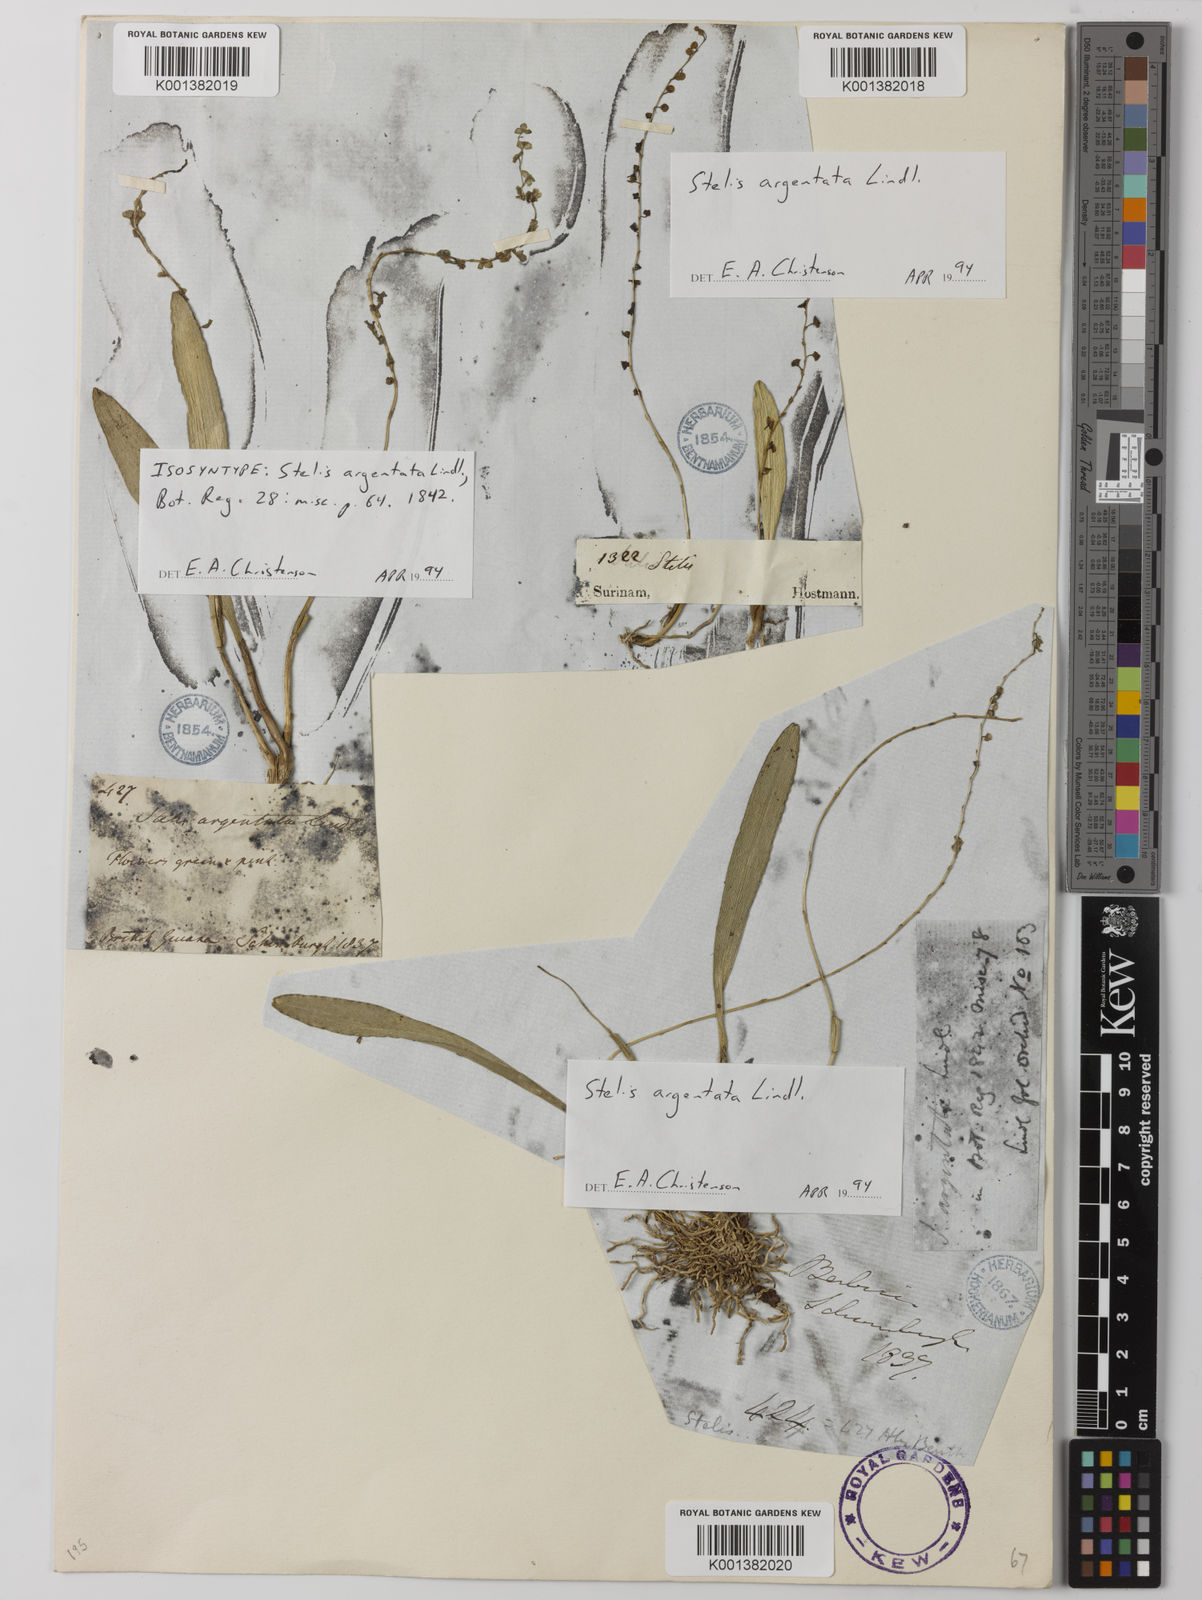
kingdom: Plantae
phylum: Tracheophyta
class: Liliopsida
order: Asparagales
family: Orchidaceae
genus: Stelis
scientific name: Stelis argentata
